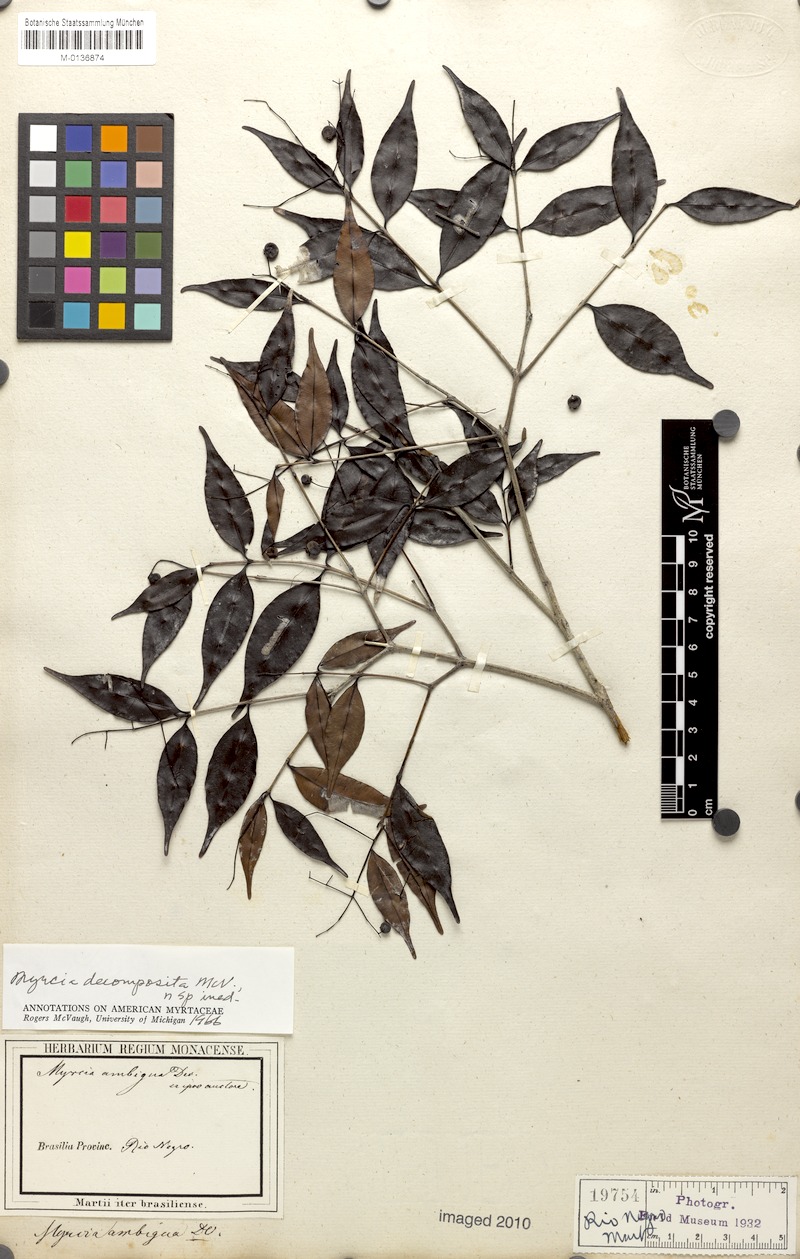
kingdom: Plantae
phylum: Tracheophyta
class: Magnoliopsida
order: Myrtales
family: Myrtaceae
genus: Myrcia
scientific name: Myrcia sylvatica
